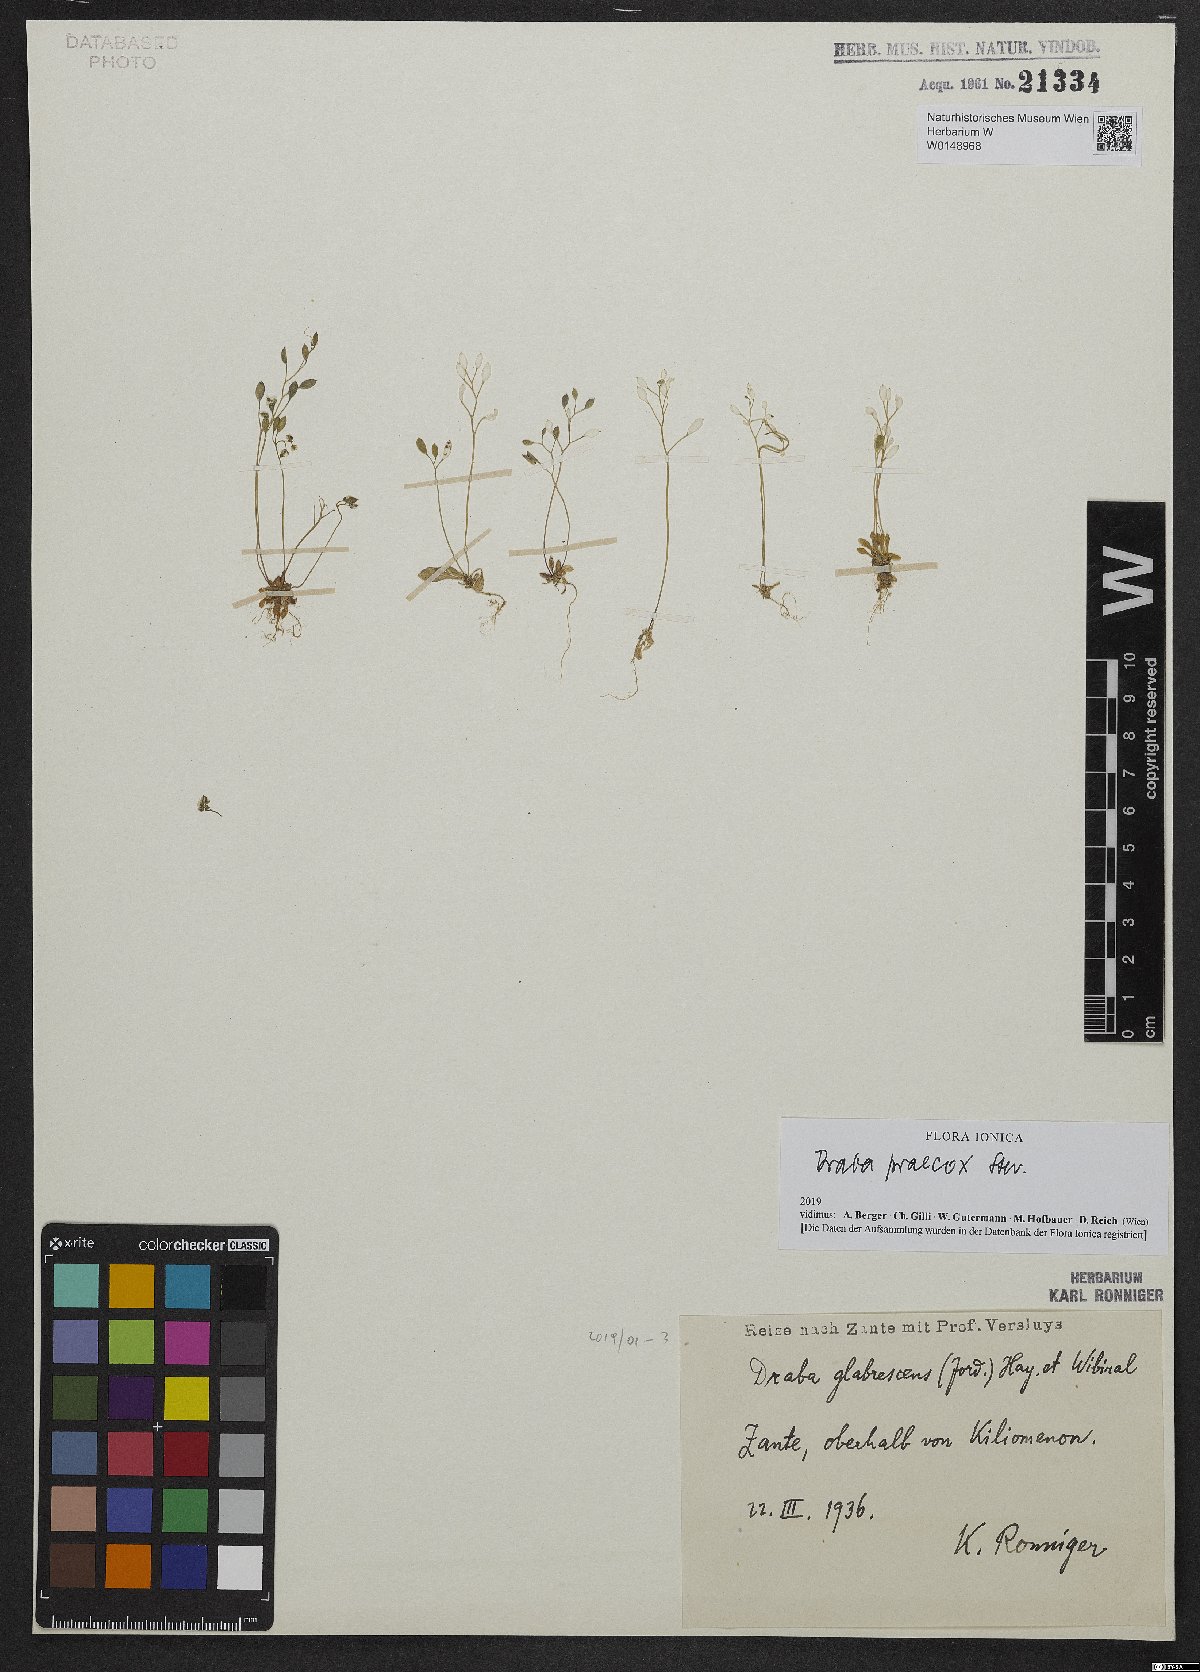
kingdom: Plantae
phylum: Tracheophyta
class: Magnoliopsida
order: Brassicales
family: Brassicaceae
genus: Draba
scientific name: Draba verna
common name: Spring draba
